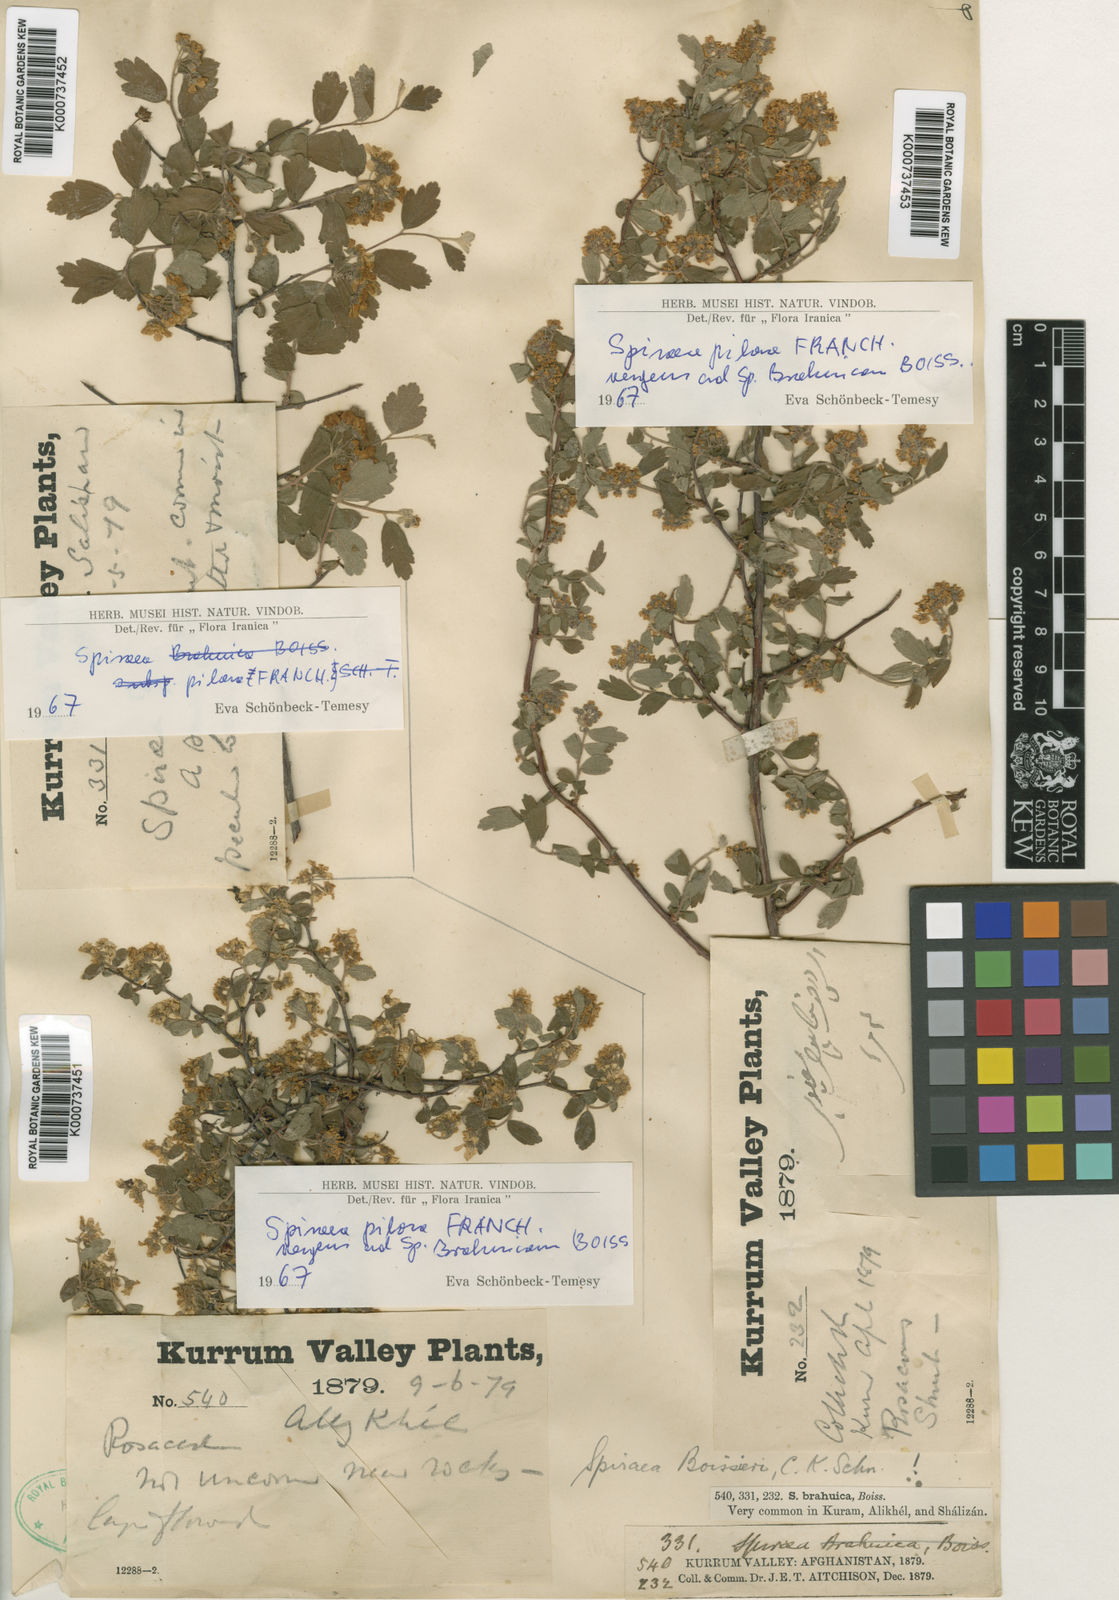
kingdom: Plantae
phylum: Tracheophyta
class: Magnoliopsida
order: Rosales
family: Rosaceae
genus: Spiraea
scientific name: Spiraea
